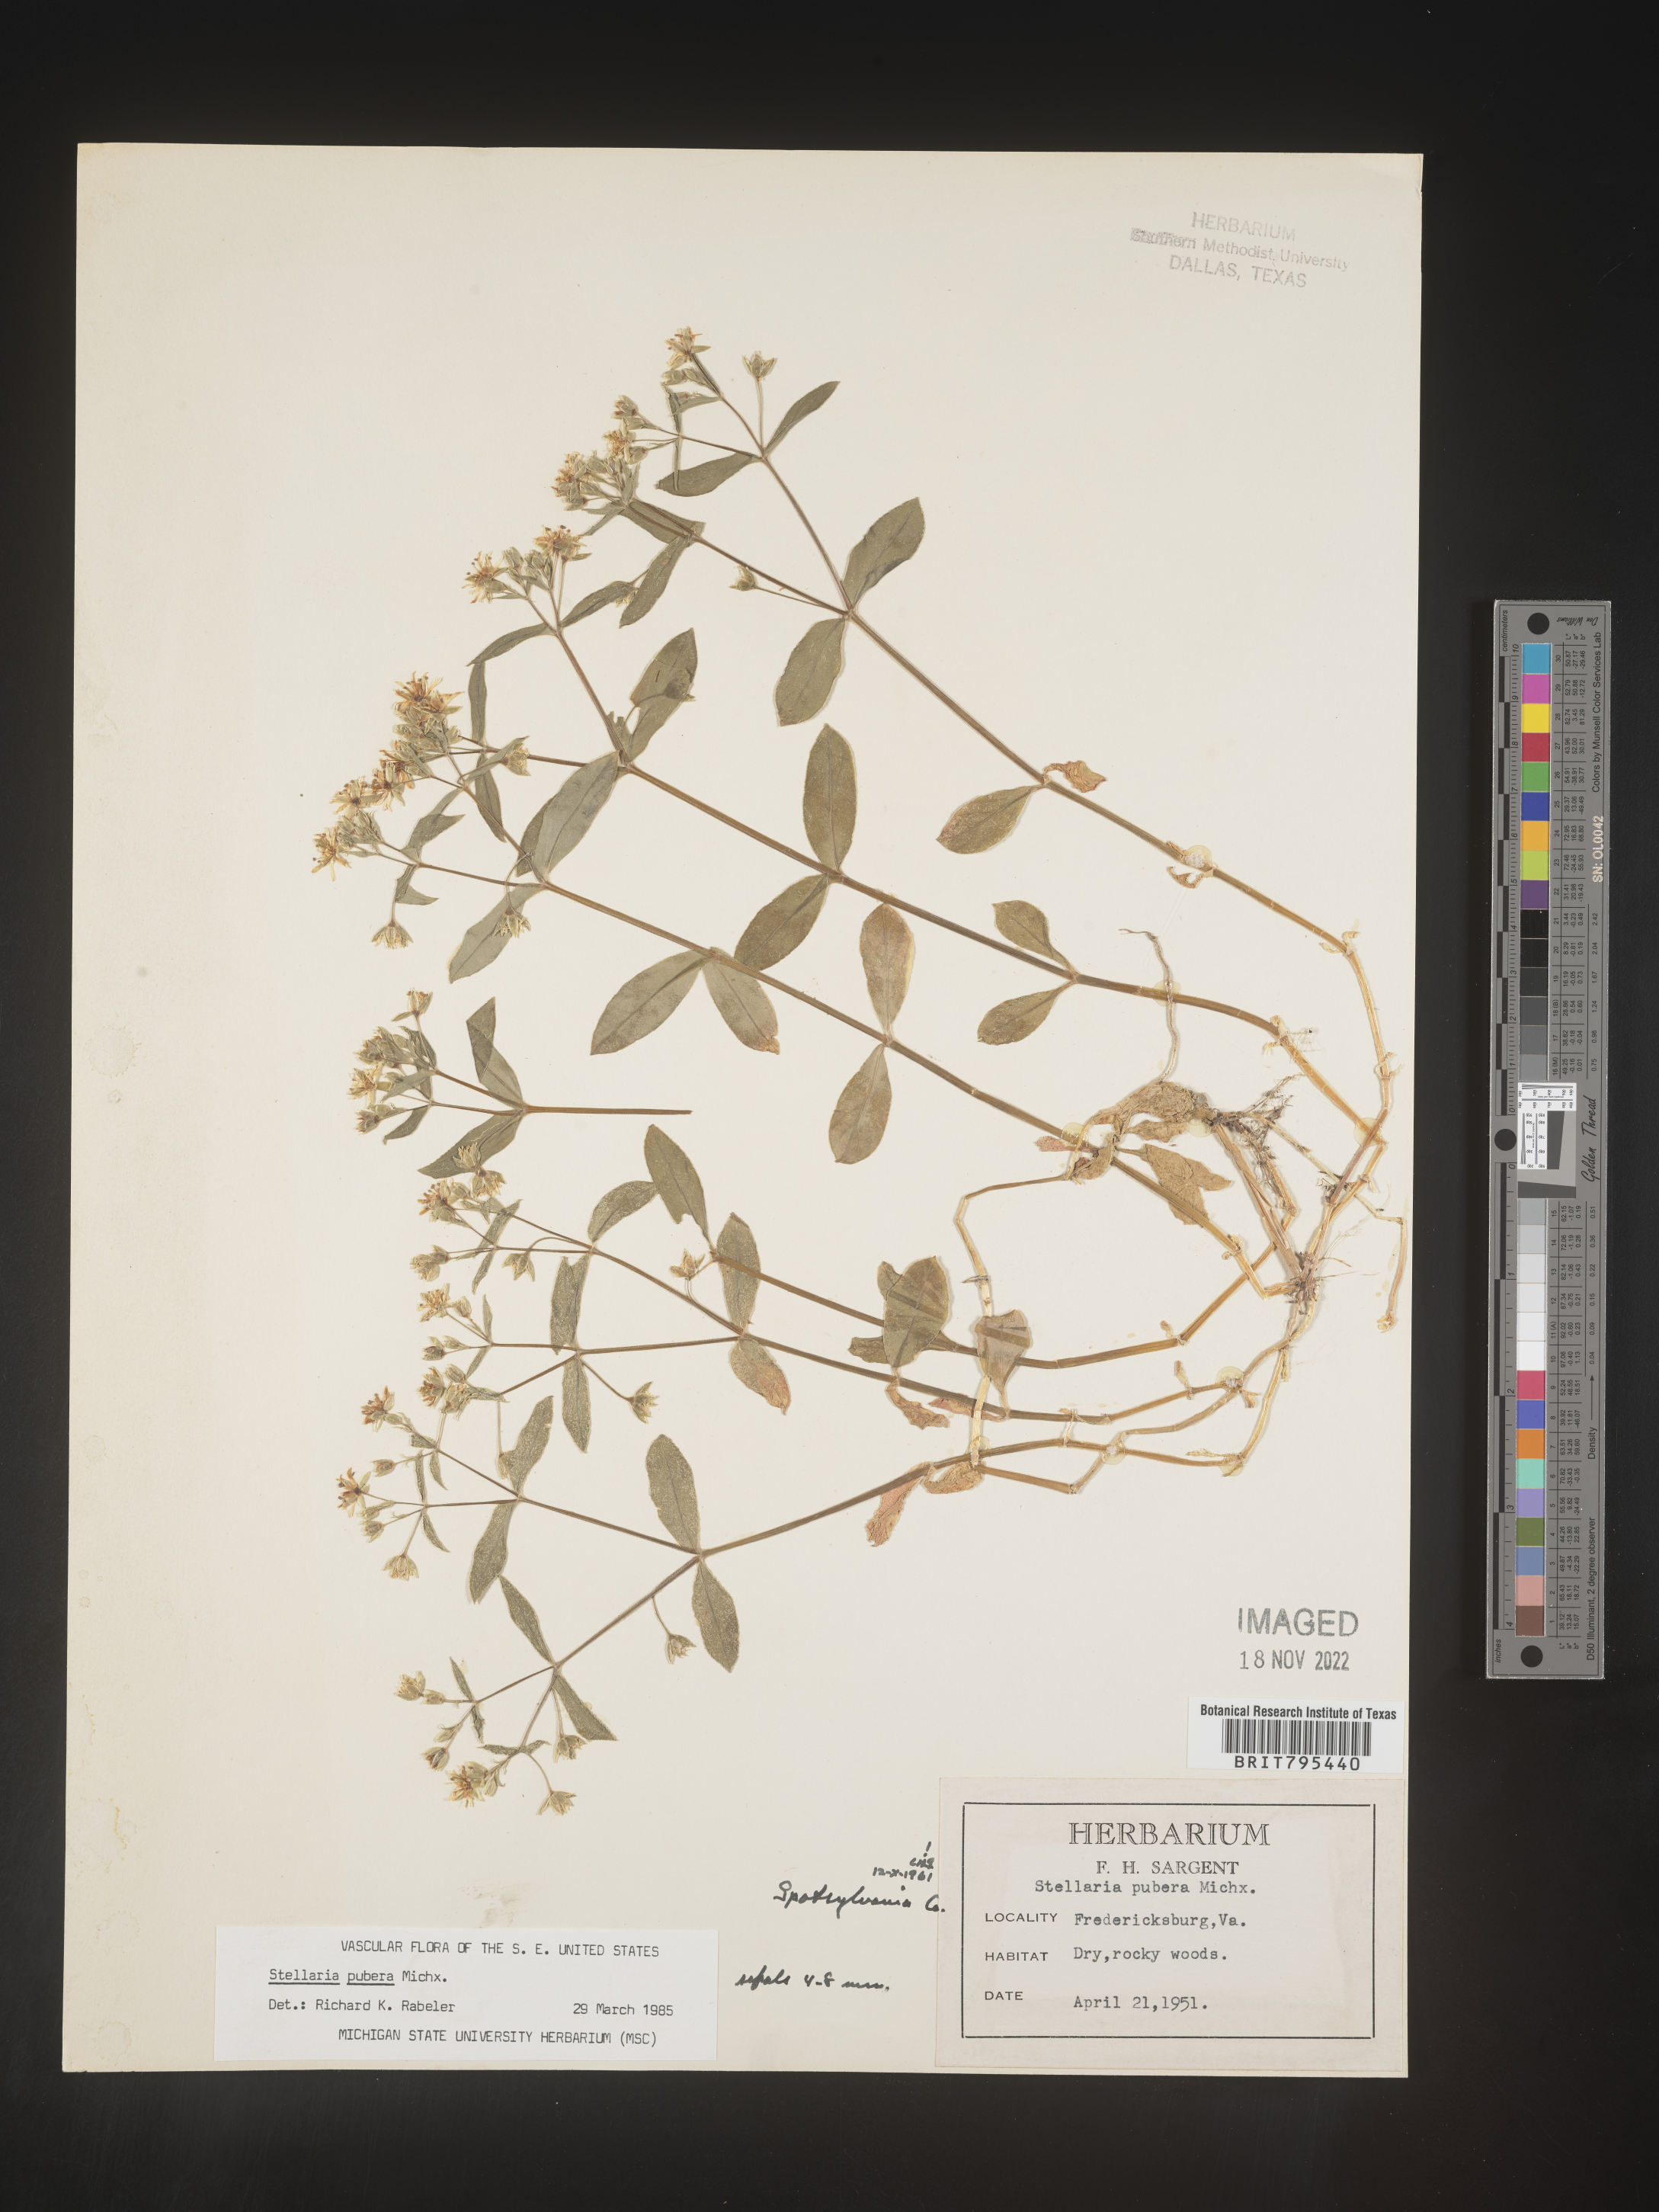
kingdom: Plantae
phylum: Tracheophyta
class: Magnoliopsida
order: Caryophyllales
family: Caryophyllaceae
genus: Stellaria
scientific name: Stellaria pubera
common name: Star chickweed
